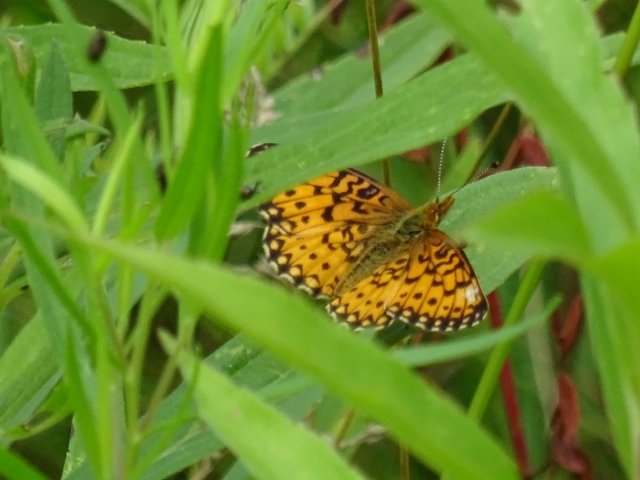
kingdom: Animalia
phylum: Arthropoda
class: Insecta
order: Lepidoptera
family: Nymphalidae
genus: Boloria
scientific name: Boloria selene
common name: Silver-bordered Fritillary
